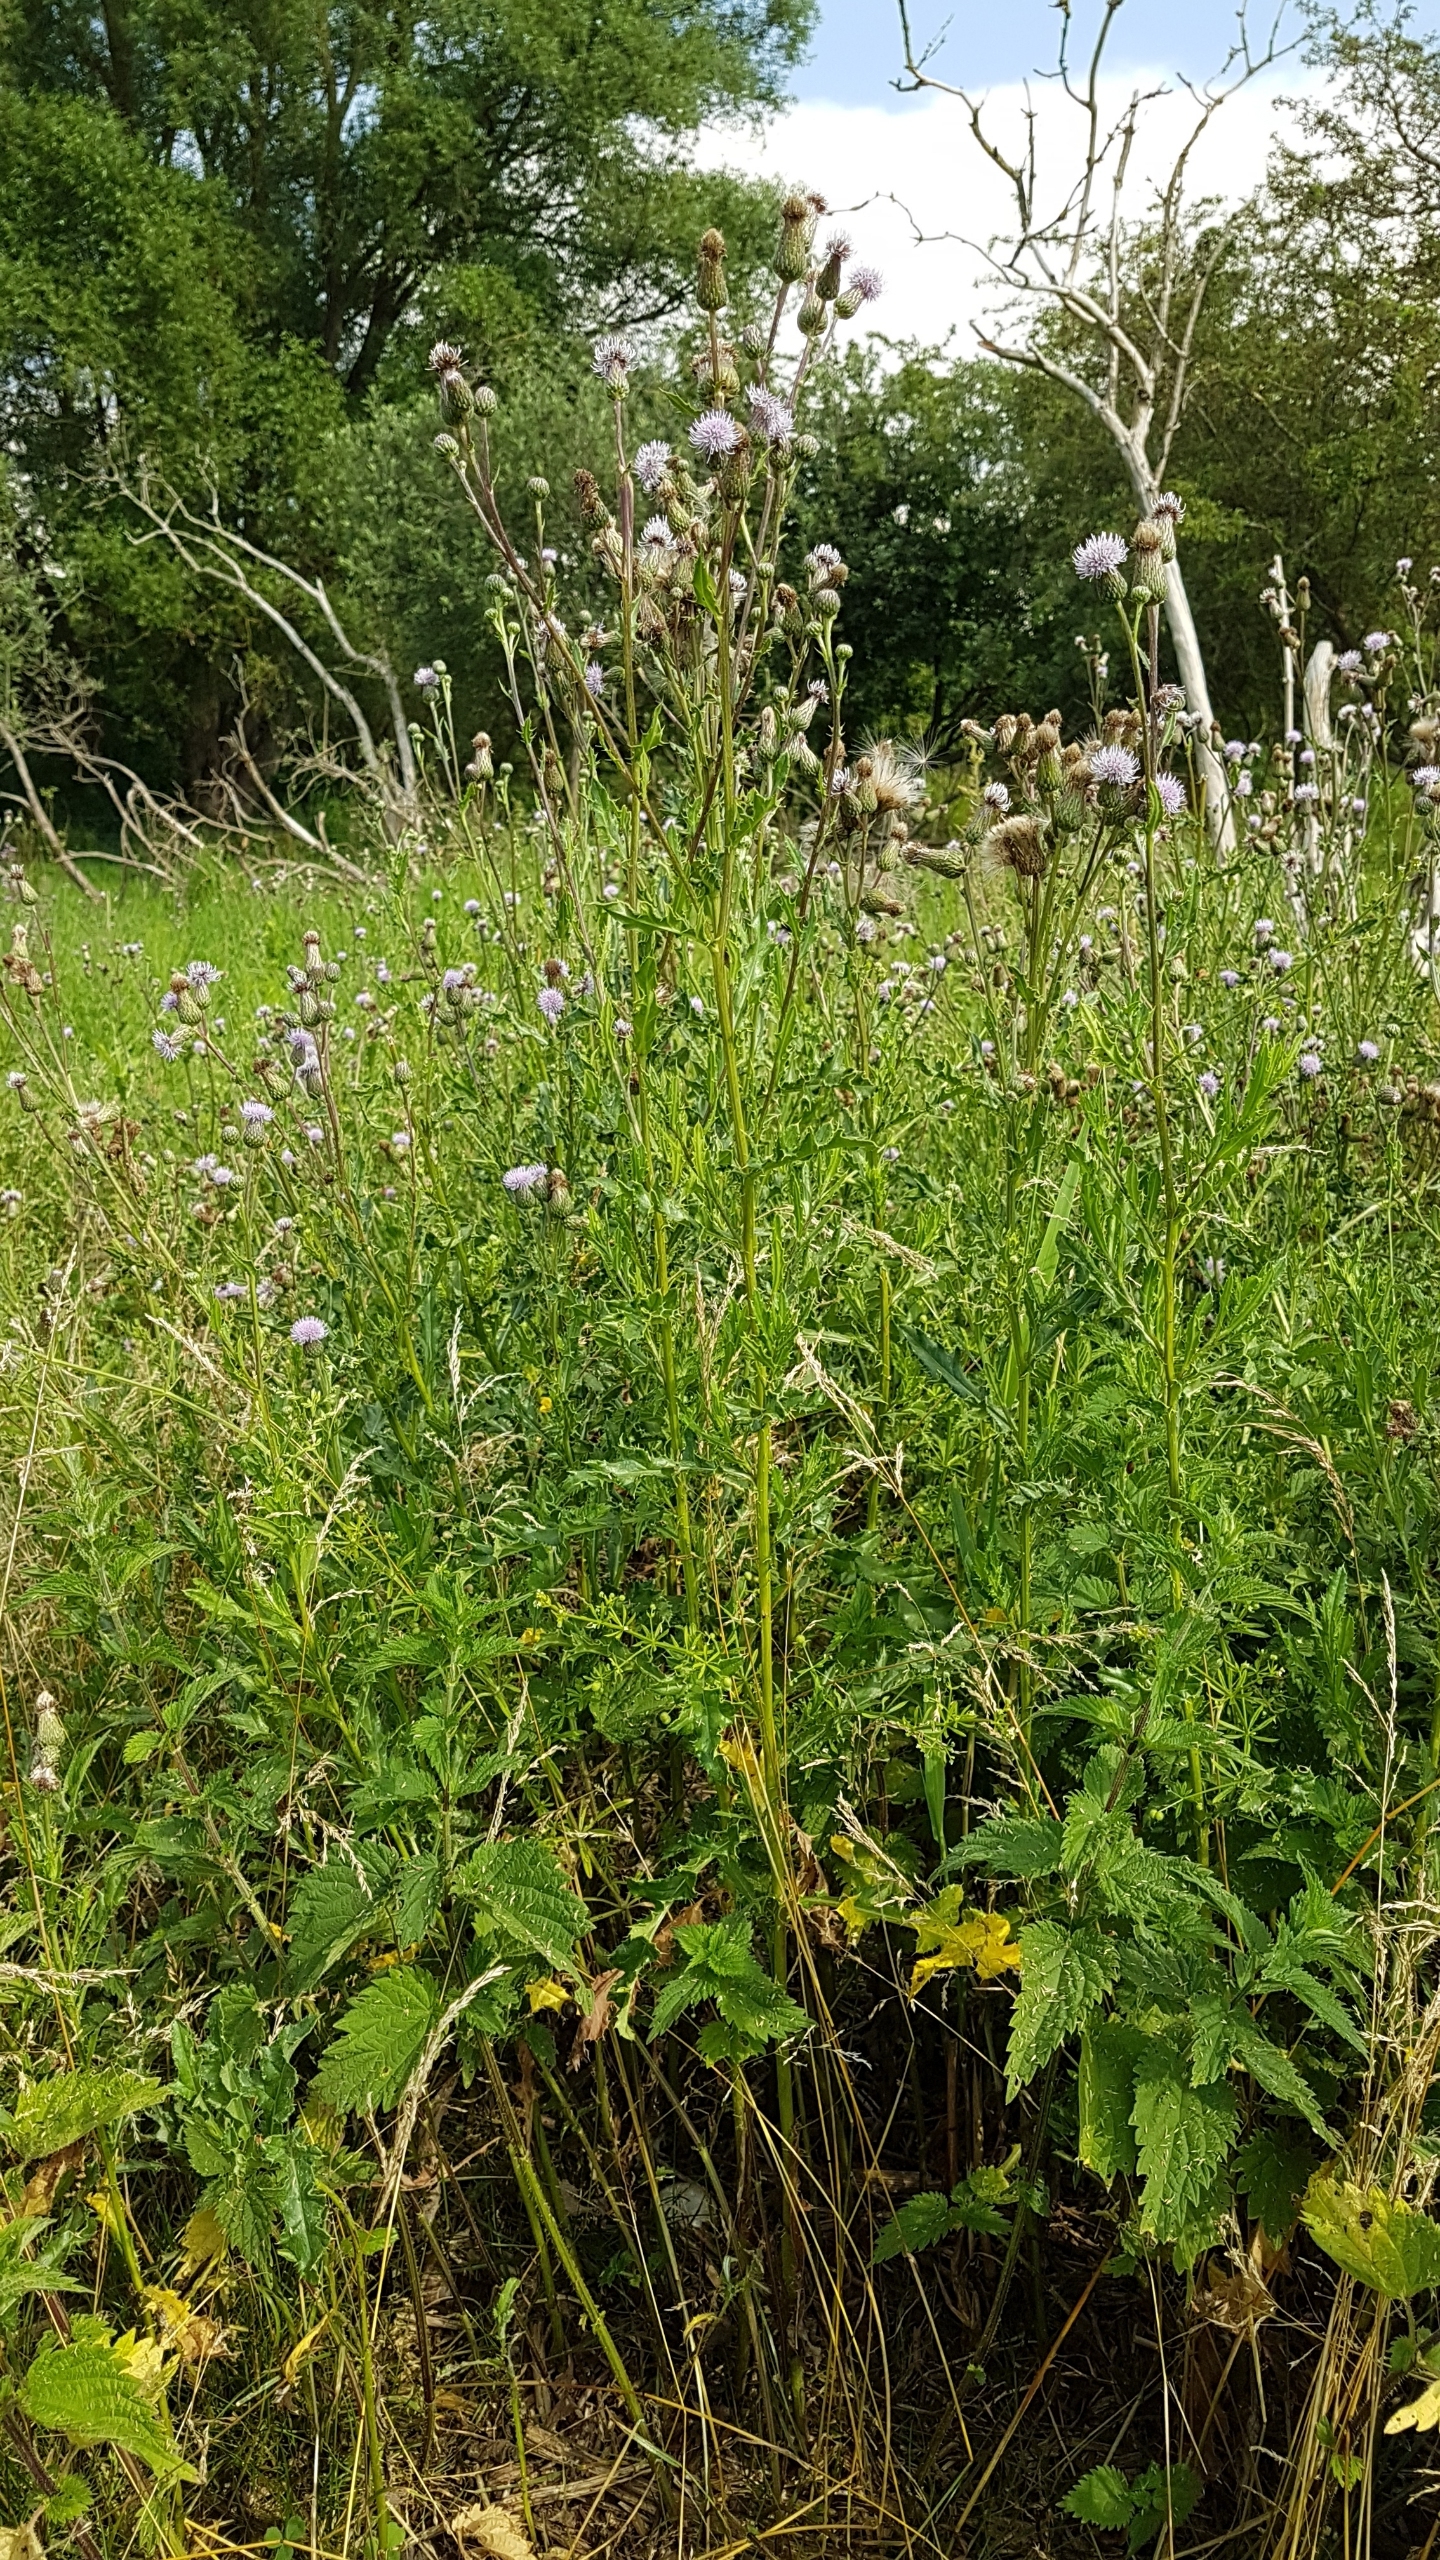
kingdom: Plantae
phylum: Tracheophyta
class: Magnoliopsida
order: Asterales
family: Asteraceae
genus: Cirsium
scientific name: Cirsium arvense
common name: Ager-tidsel
